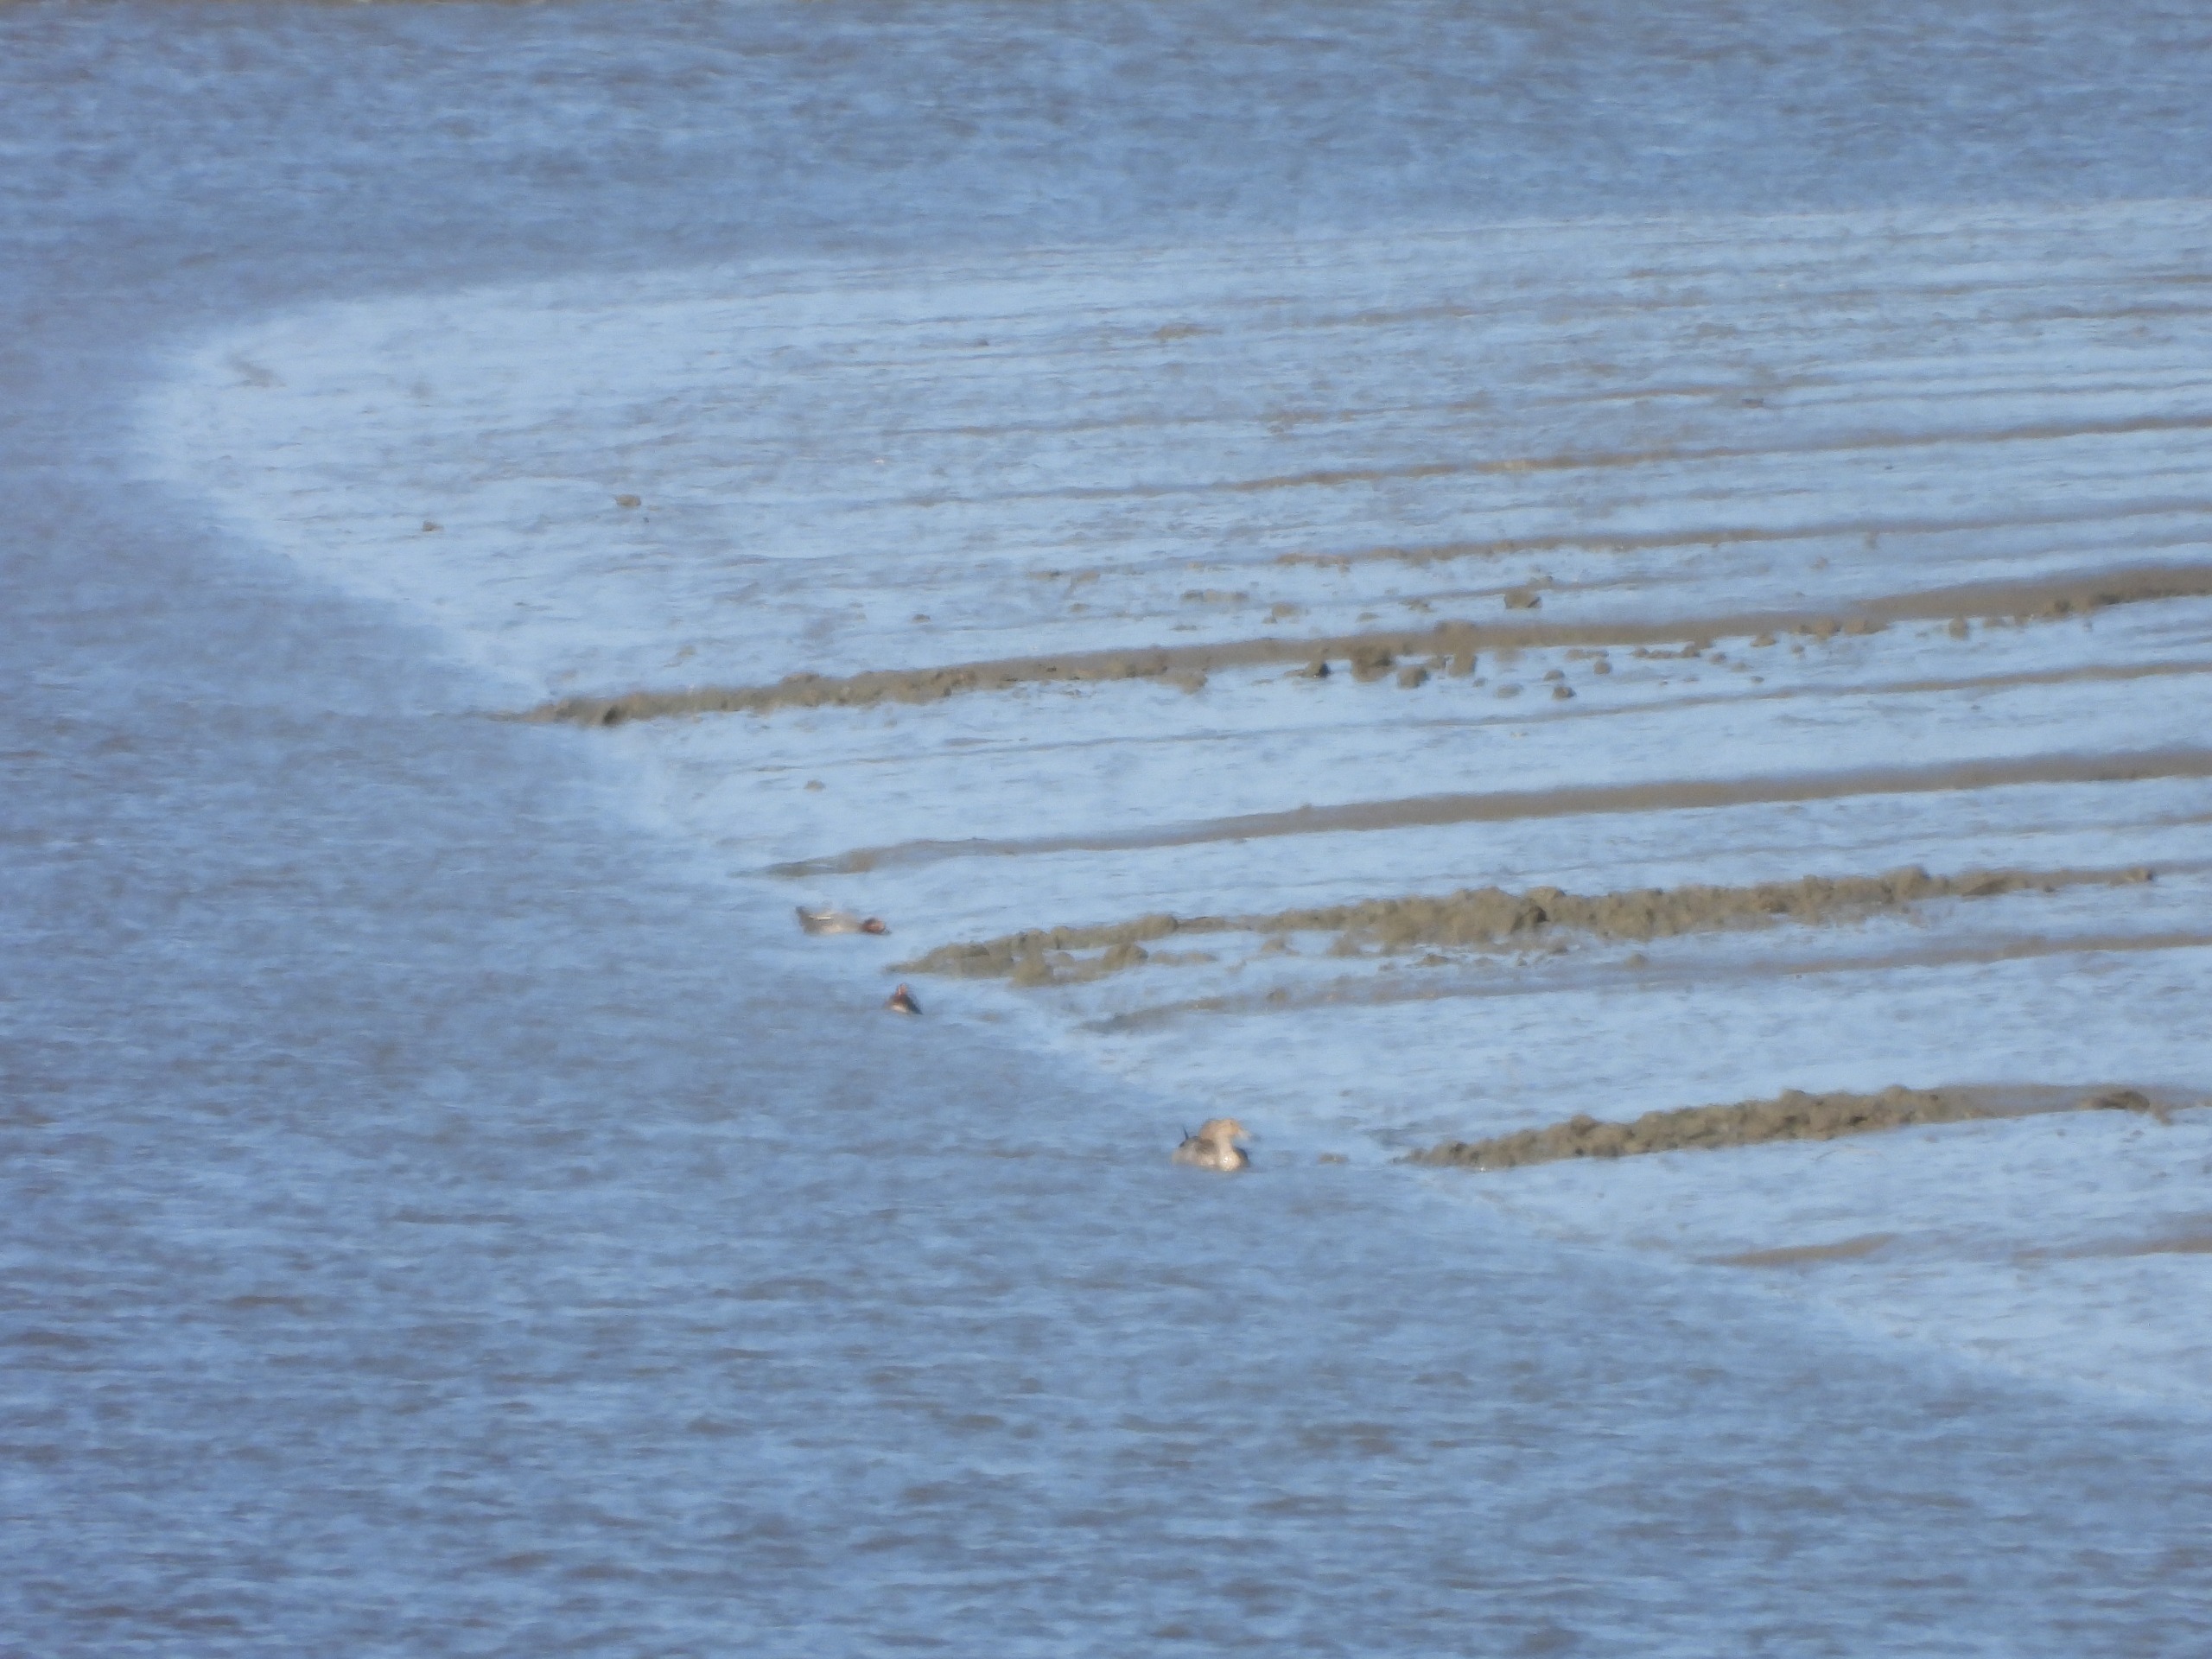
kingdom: Animalia
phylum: Chordata
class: Aves
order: Anseriformes
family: Anatidae
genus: Anas
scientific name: Anas acuta
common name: Spidsand
